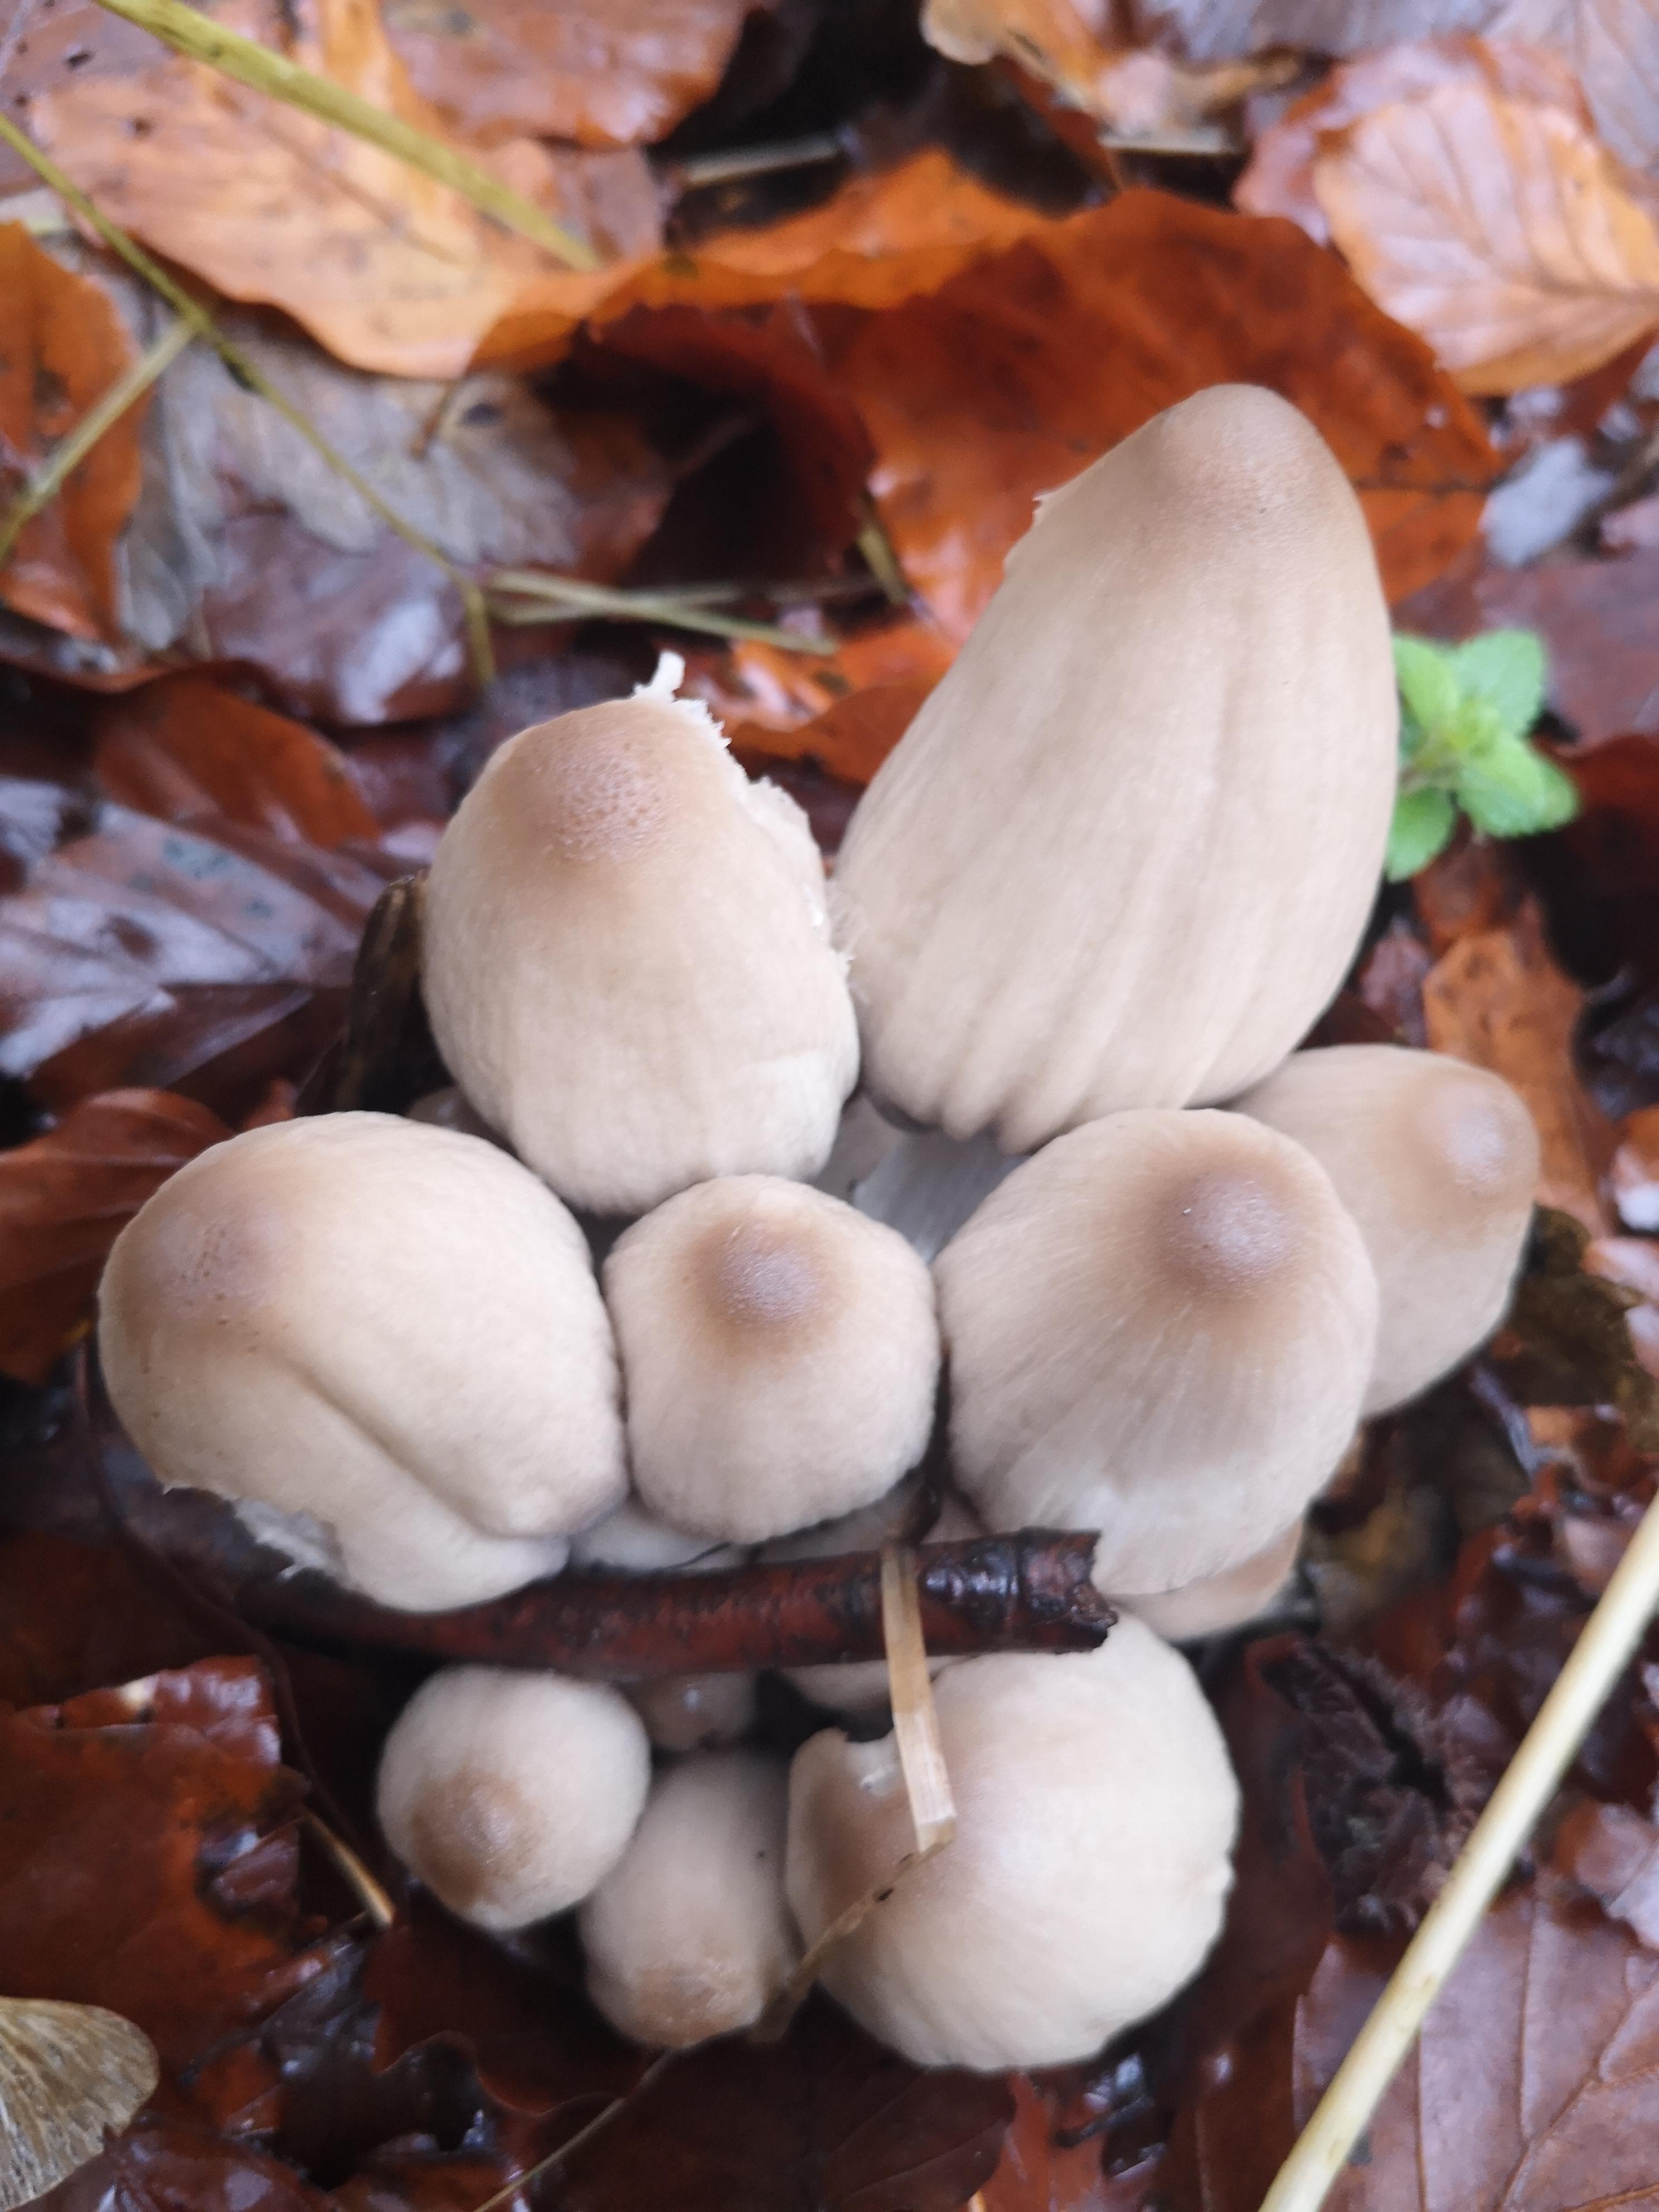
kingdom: Fungi
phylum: Basidiomycota
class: Agaricomycetes
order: Agaricales
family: Psathyrellaceae
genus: Coprinopsis
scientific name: Coprinopsis
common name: blækhat
